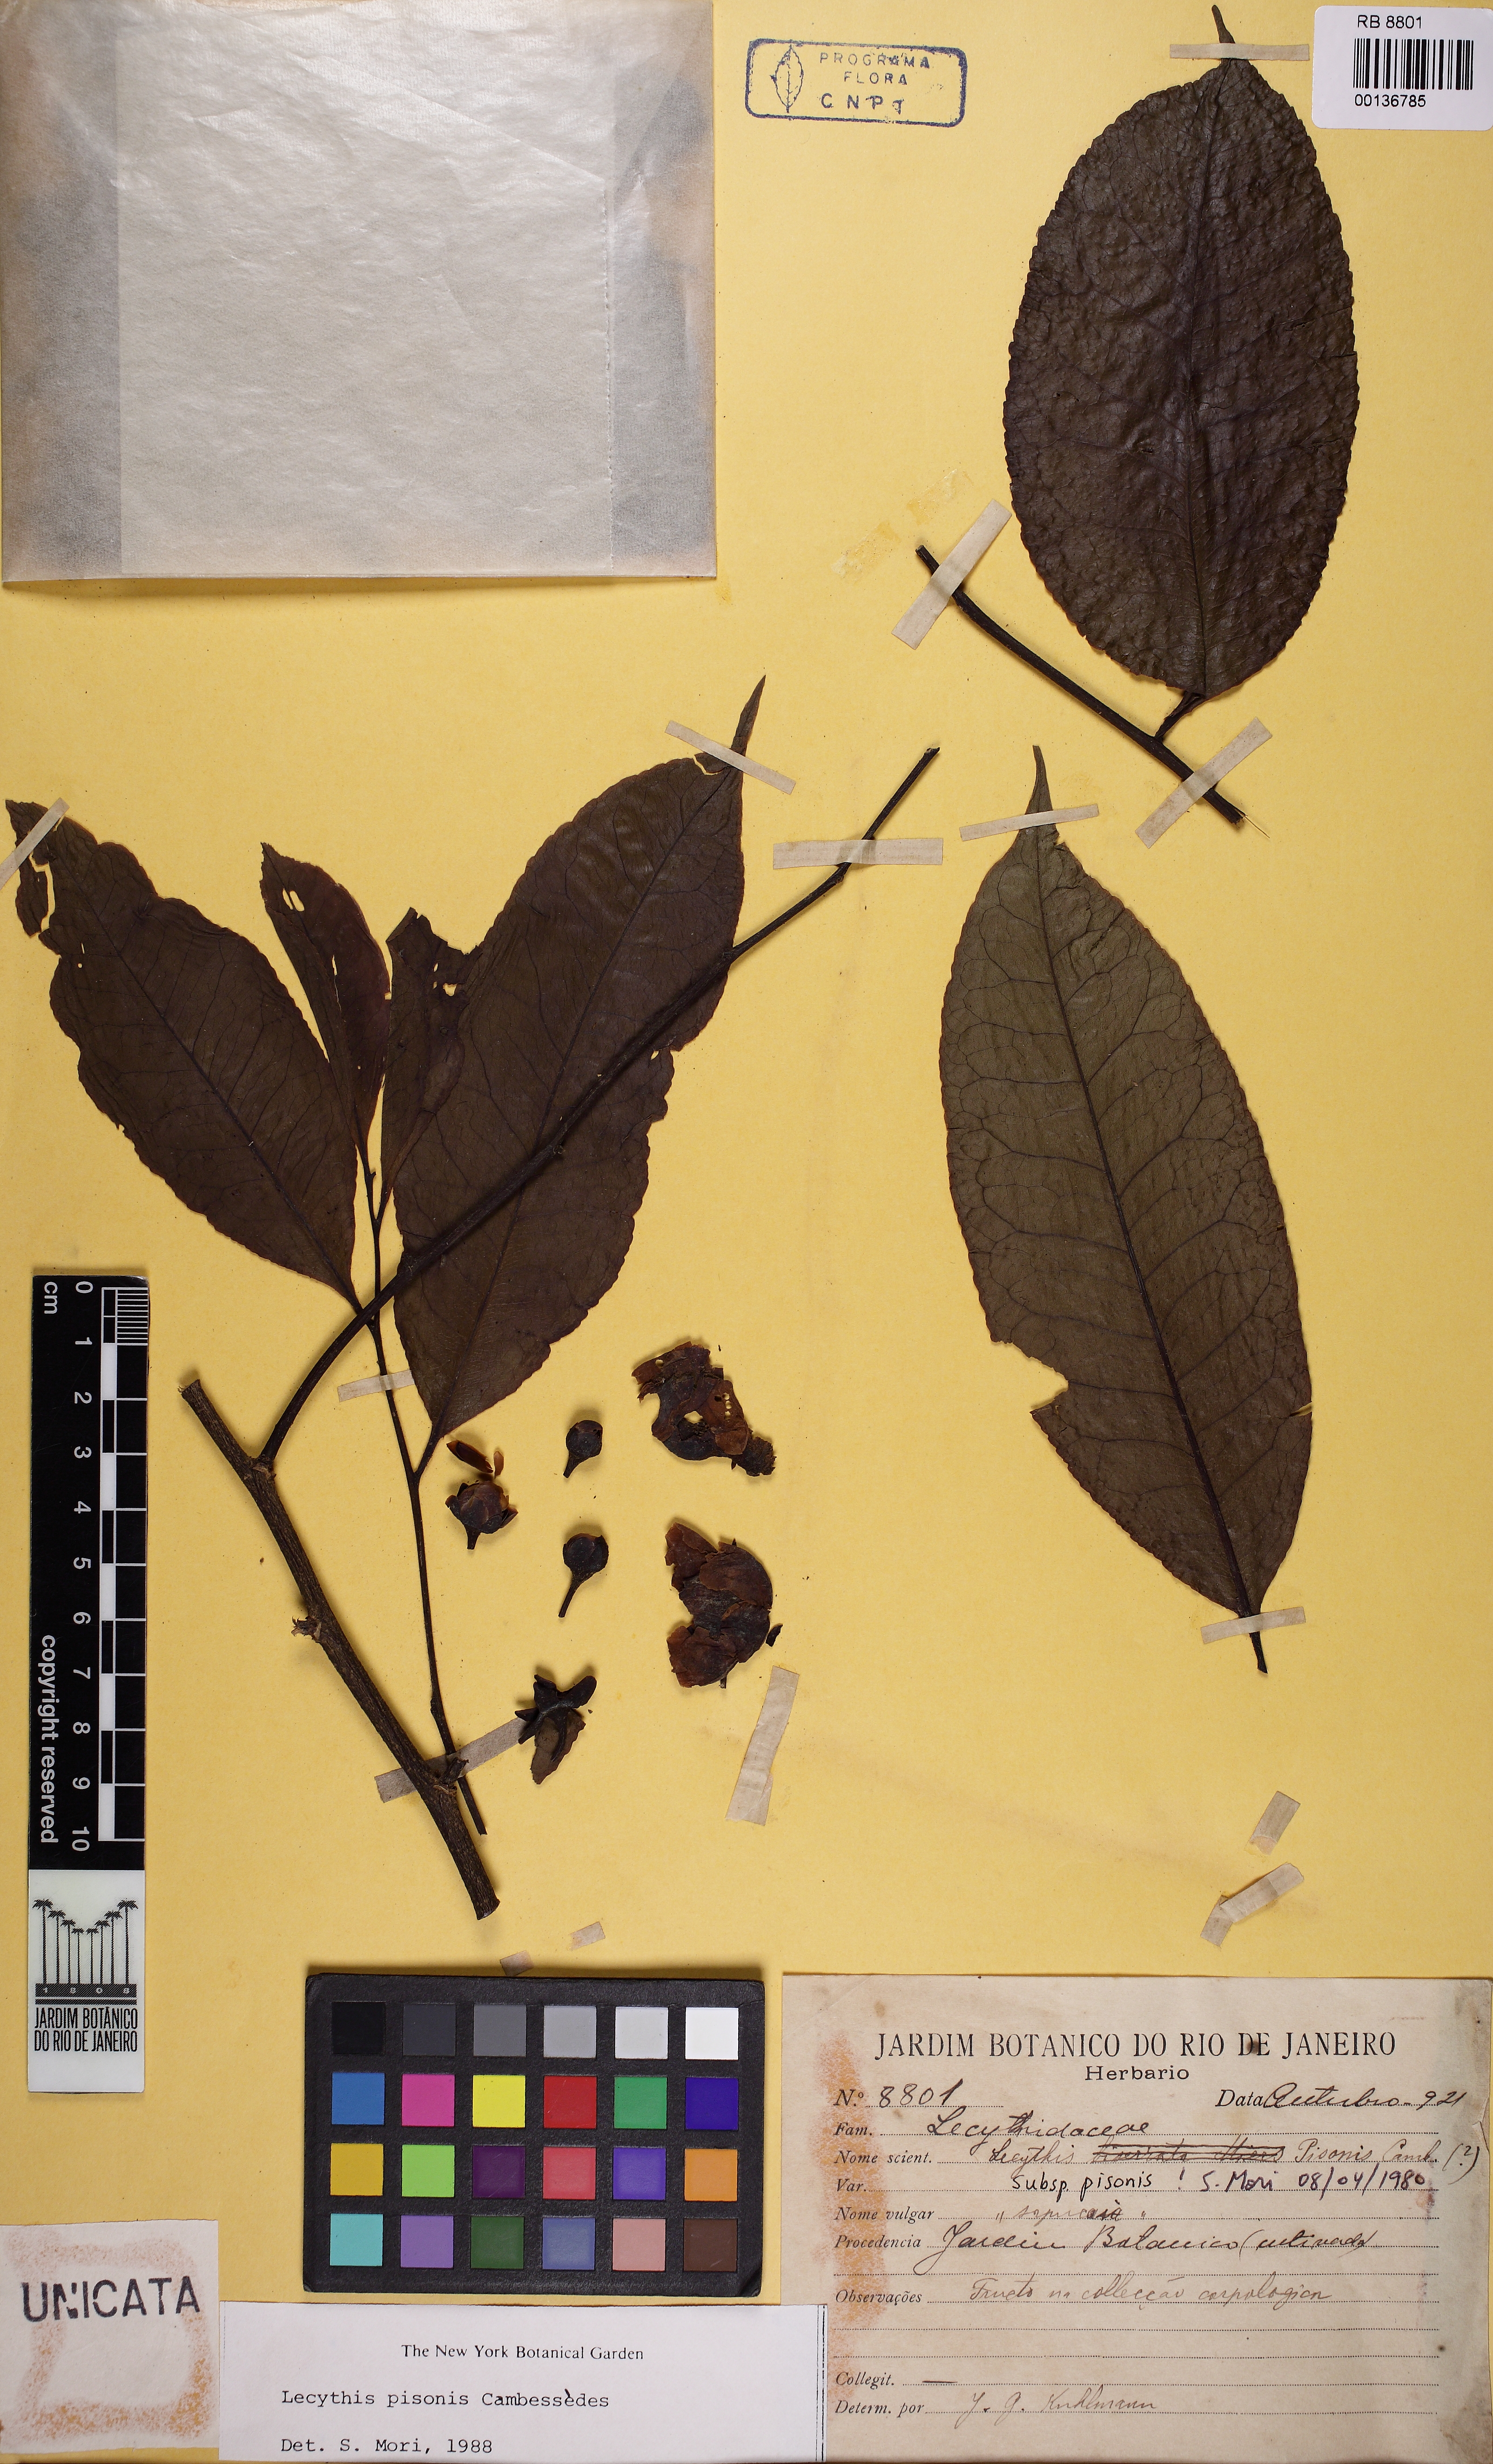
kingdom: Plantae
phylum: Tracheophyta
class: Magnoliopsida
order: Ericales
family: Lecythidaceae
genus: Lecythis
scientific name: Lecythis pisonis
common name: Paradise-nut
